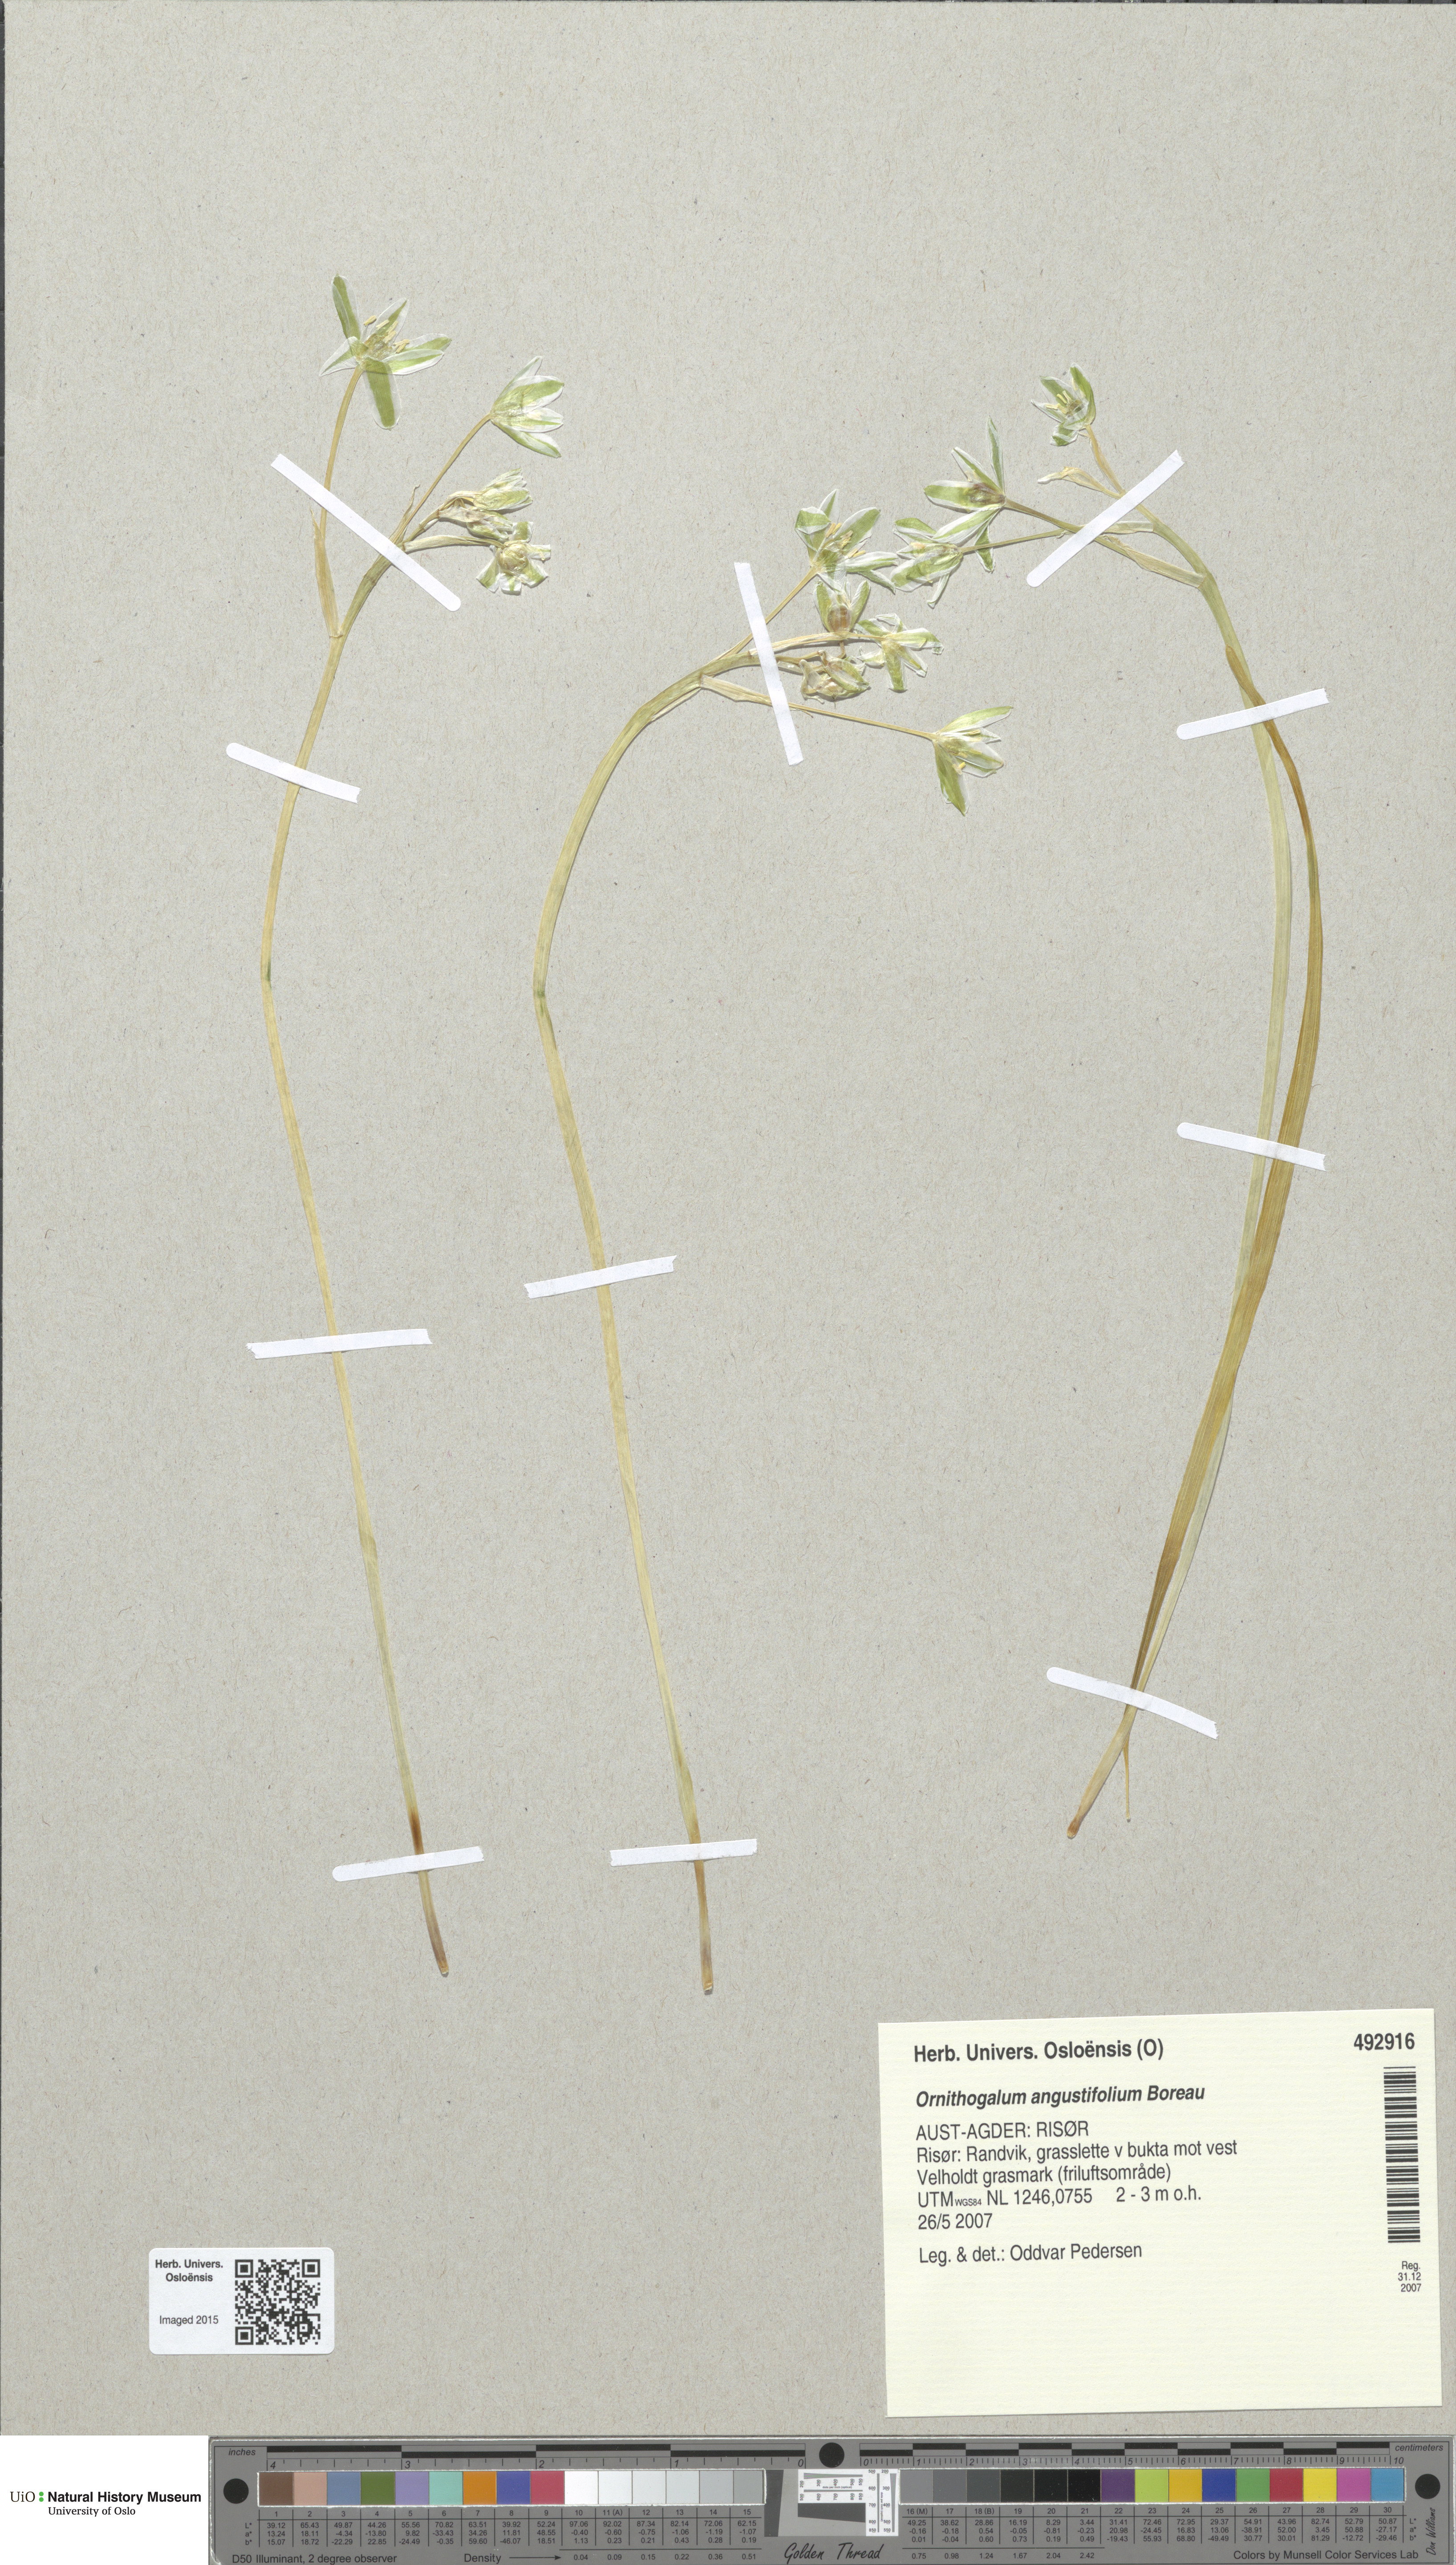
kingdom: Plantae
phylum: Tracheophyta
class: Liliopsida
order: Asparagales
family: Asparagaceae
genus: Ornithogalum
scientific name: Ornithogalum umbellatum
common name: Garden star-of-bethlehem
